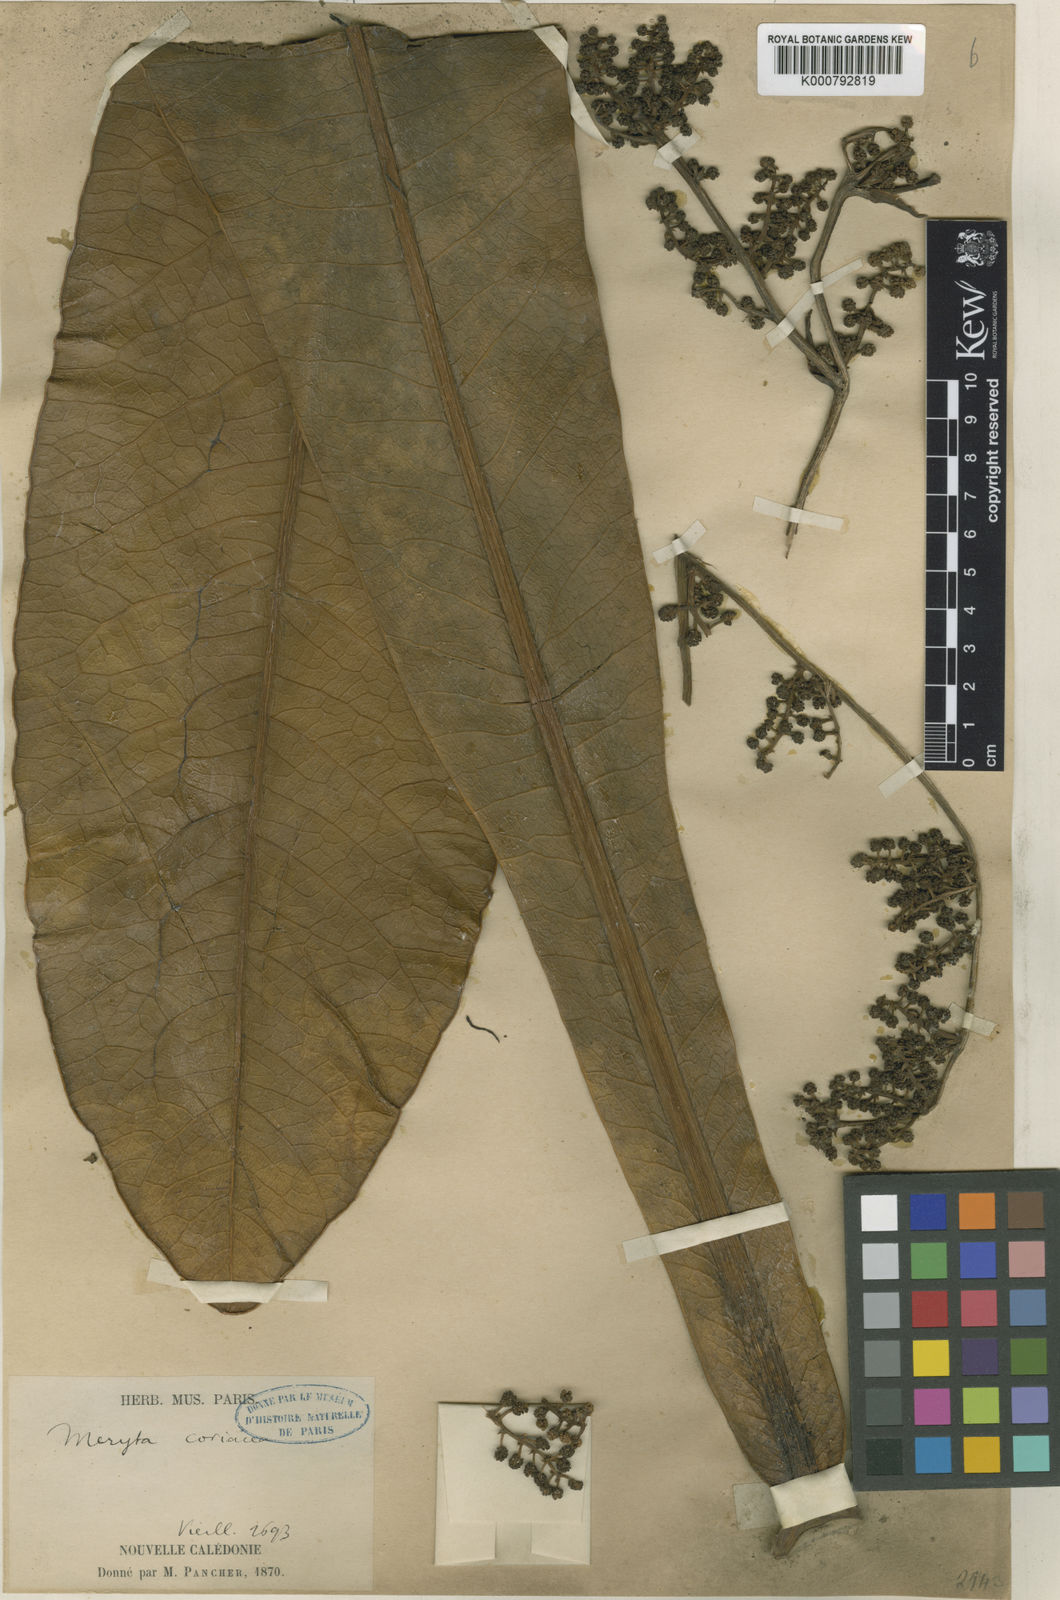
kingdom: Plantae
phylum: Tracheophyta
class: Magnoliopsida
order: Apiales
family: Araliaceae
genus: Meryta
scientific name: Meryta coriacea
